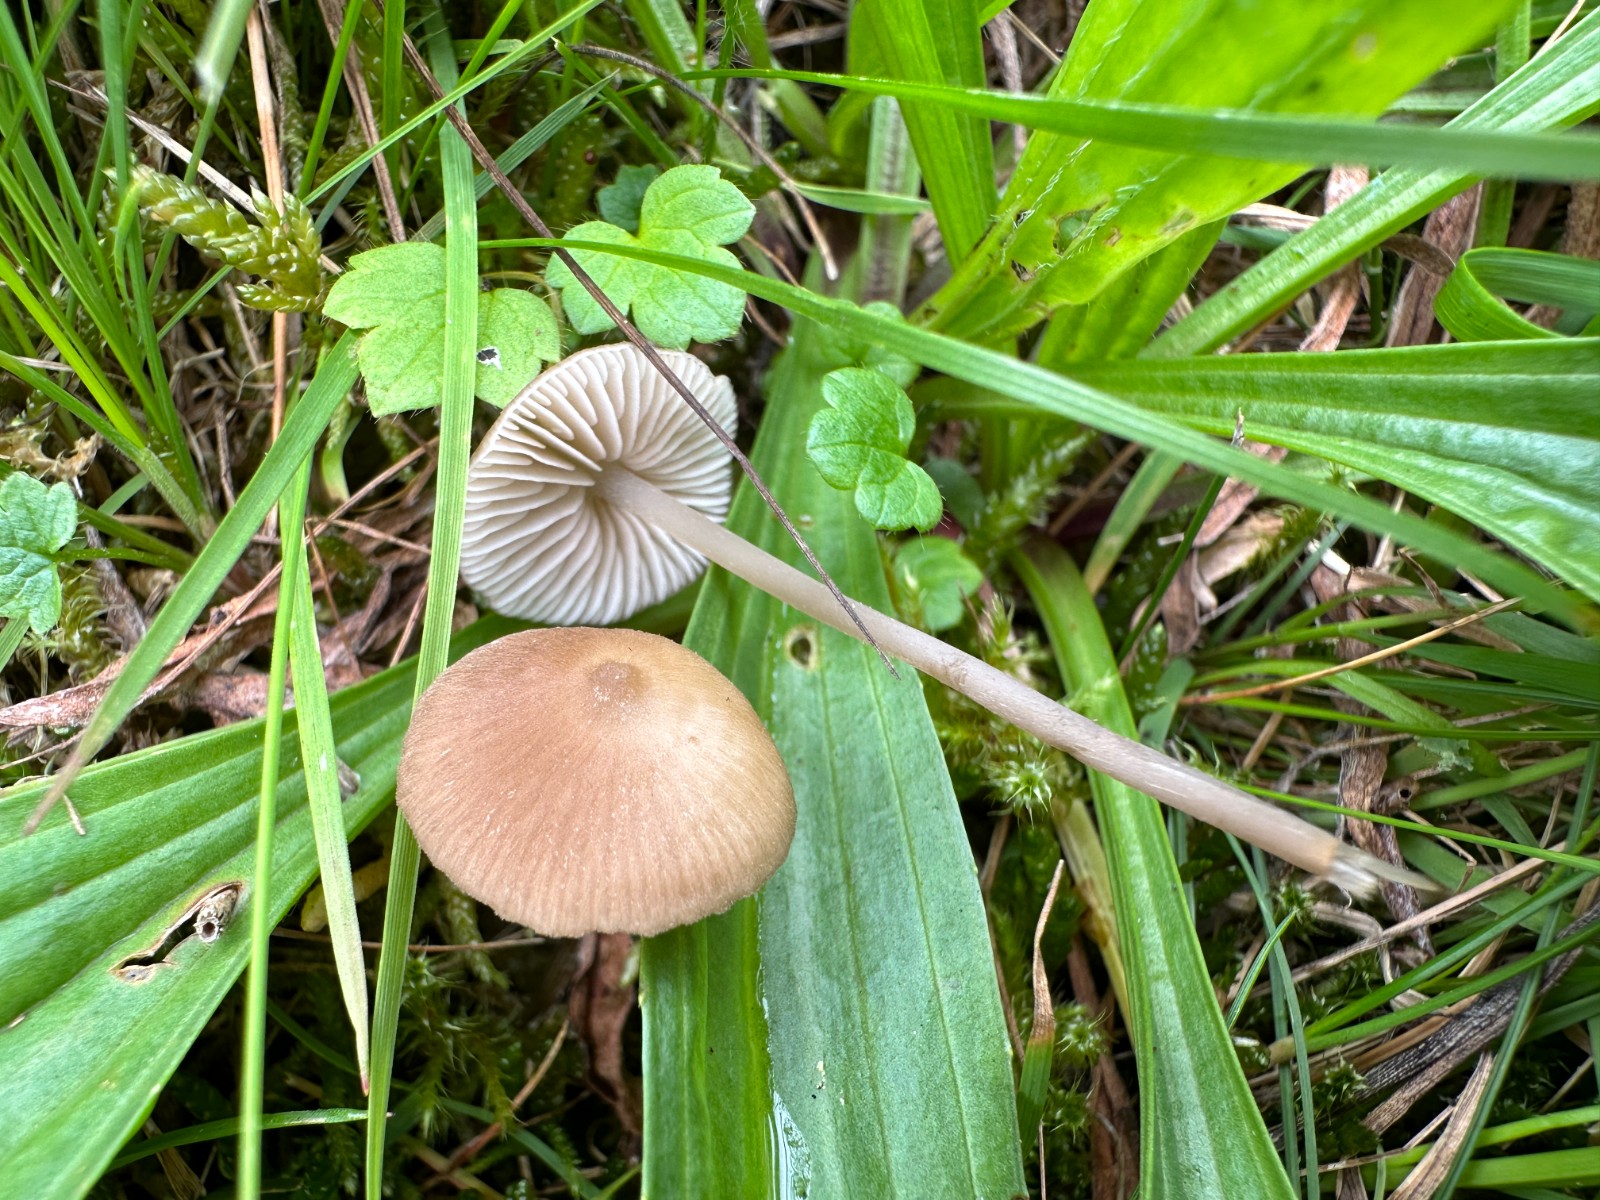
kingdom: Fungi
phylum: Basidiomycota
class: Agaricomycetes
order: Agaricales
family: Entolomataceae
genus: Entoloma
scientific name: Entoloma
